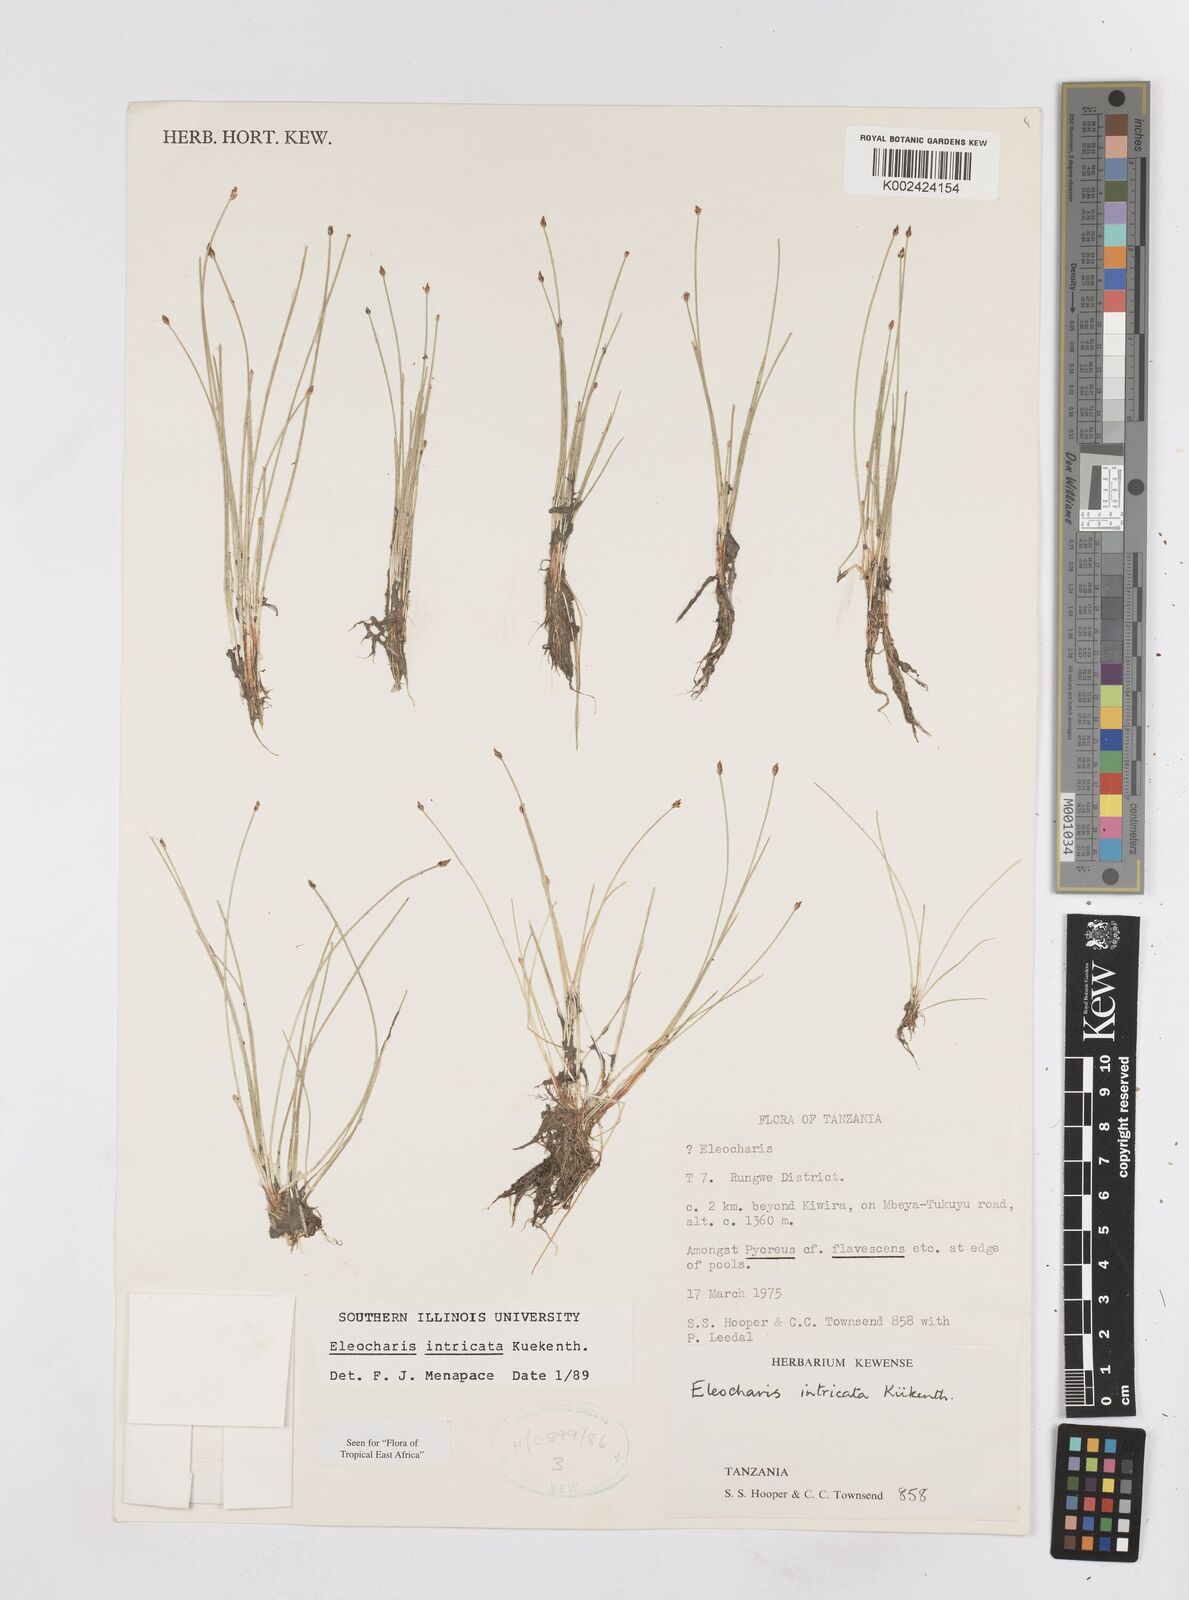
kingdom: Plantae
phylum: Tracheophyta
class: Liliopsida
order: Poales
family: Cyperaceae
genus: Eleocharis
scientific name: Eleocharis caduca
